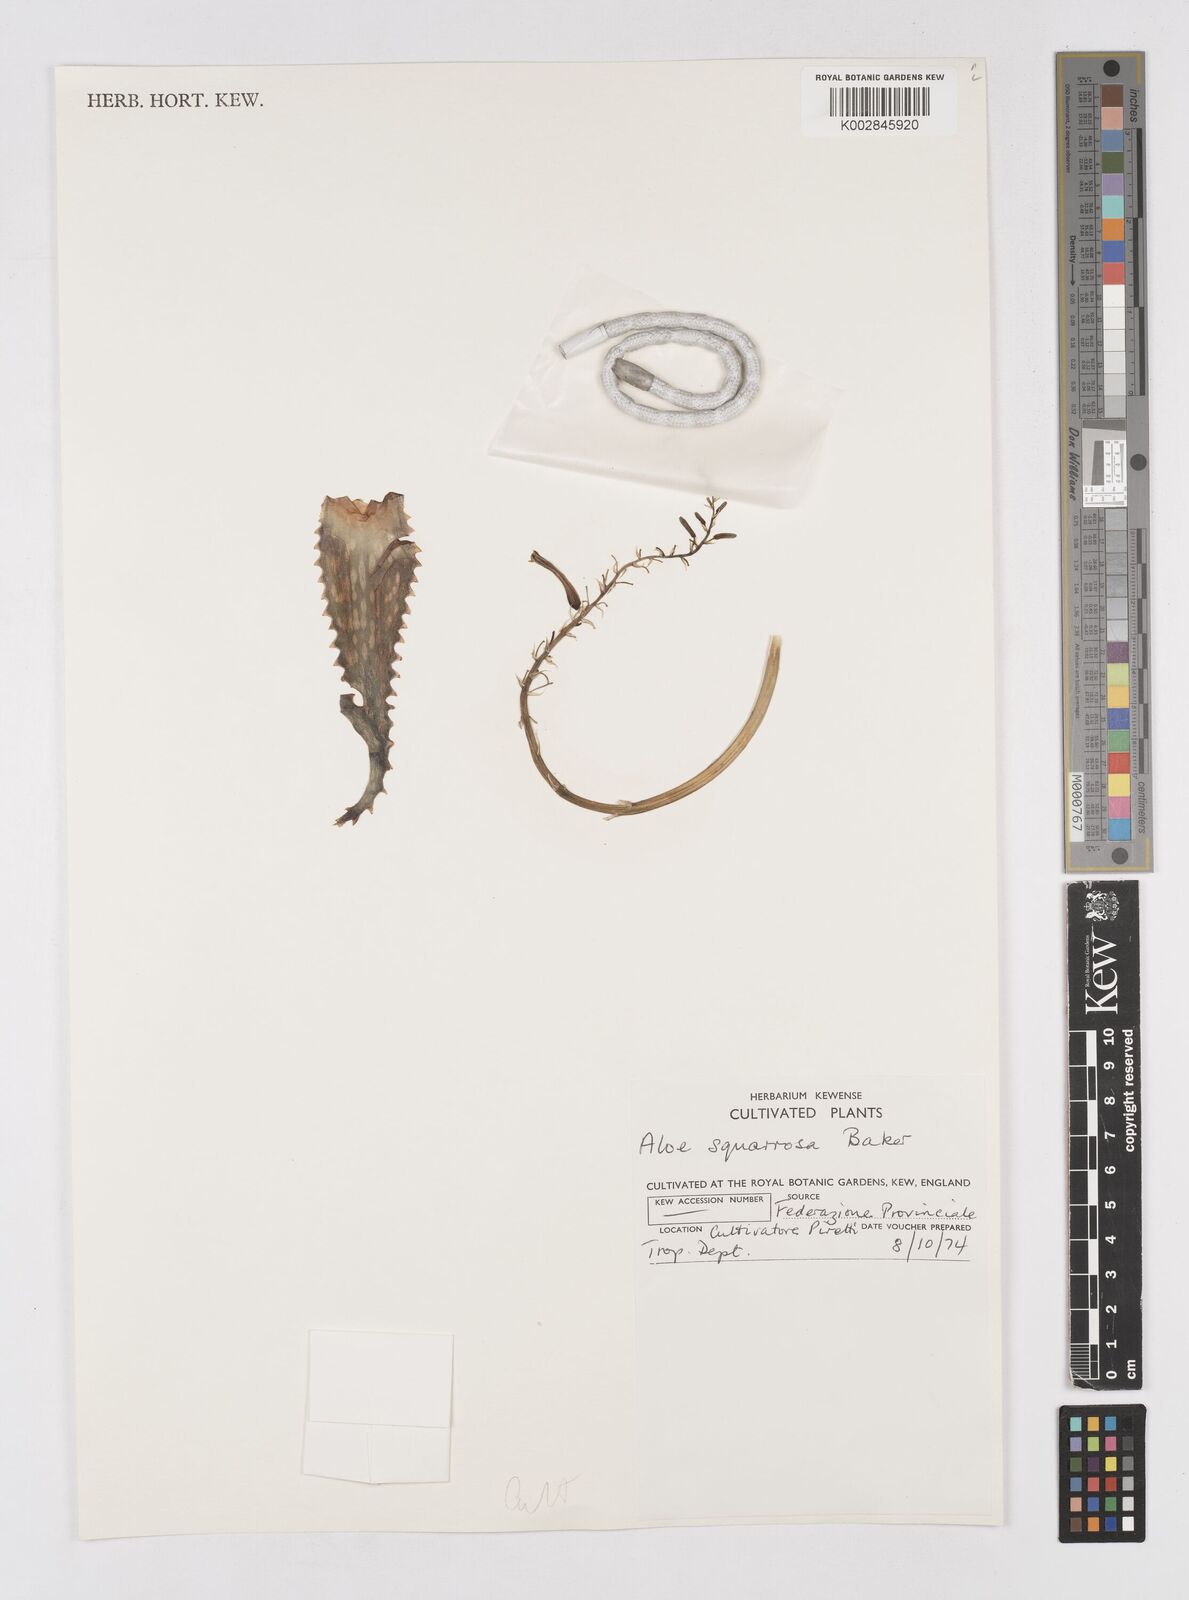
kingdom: Plantae
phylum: Tracheophyta
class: Liliopsida
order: Asparagales
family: Asphodelaceae
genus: Aloe
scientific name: Aloe squarrosa
